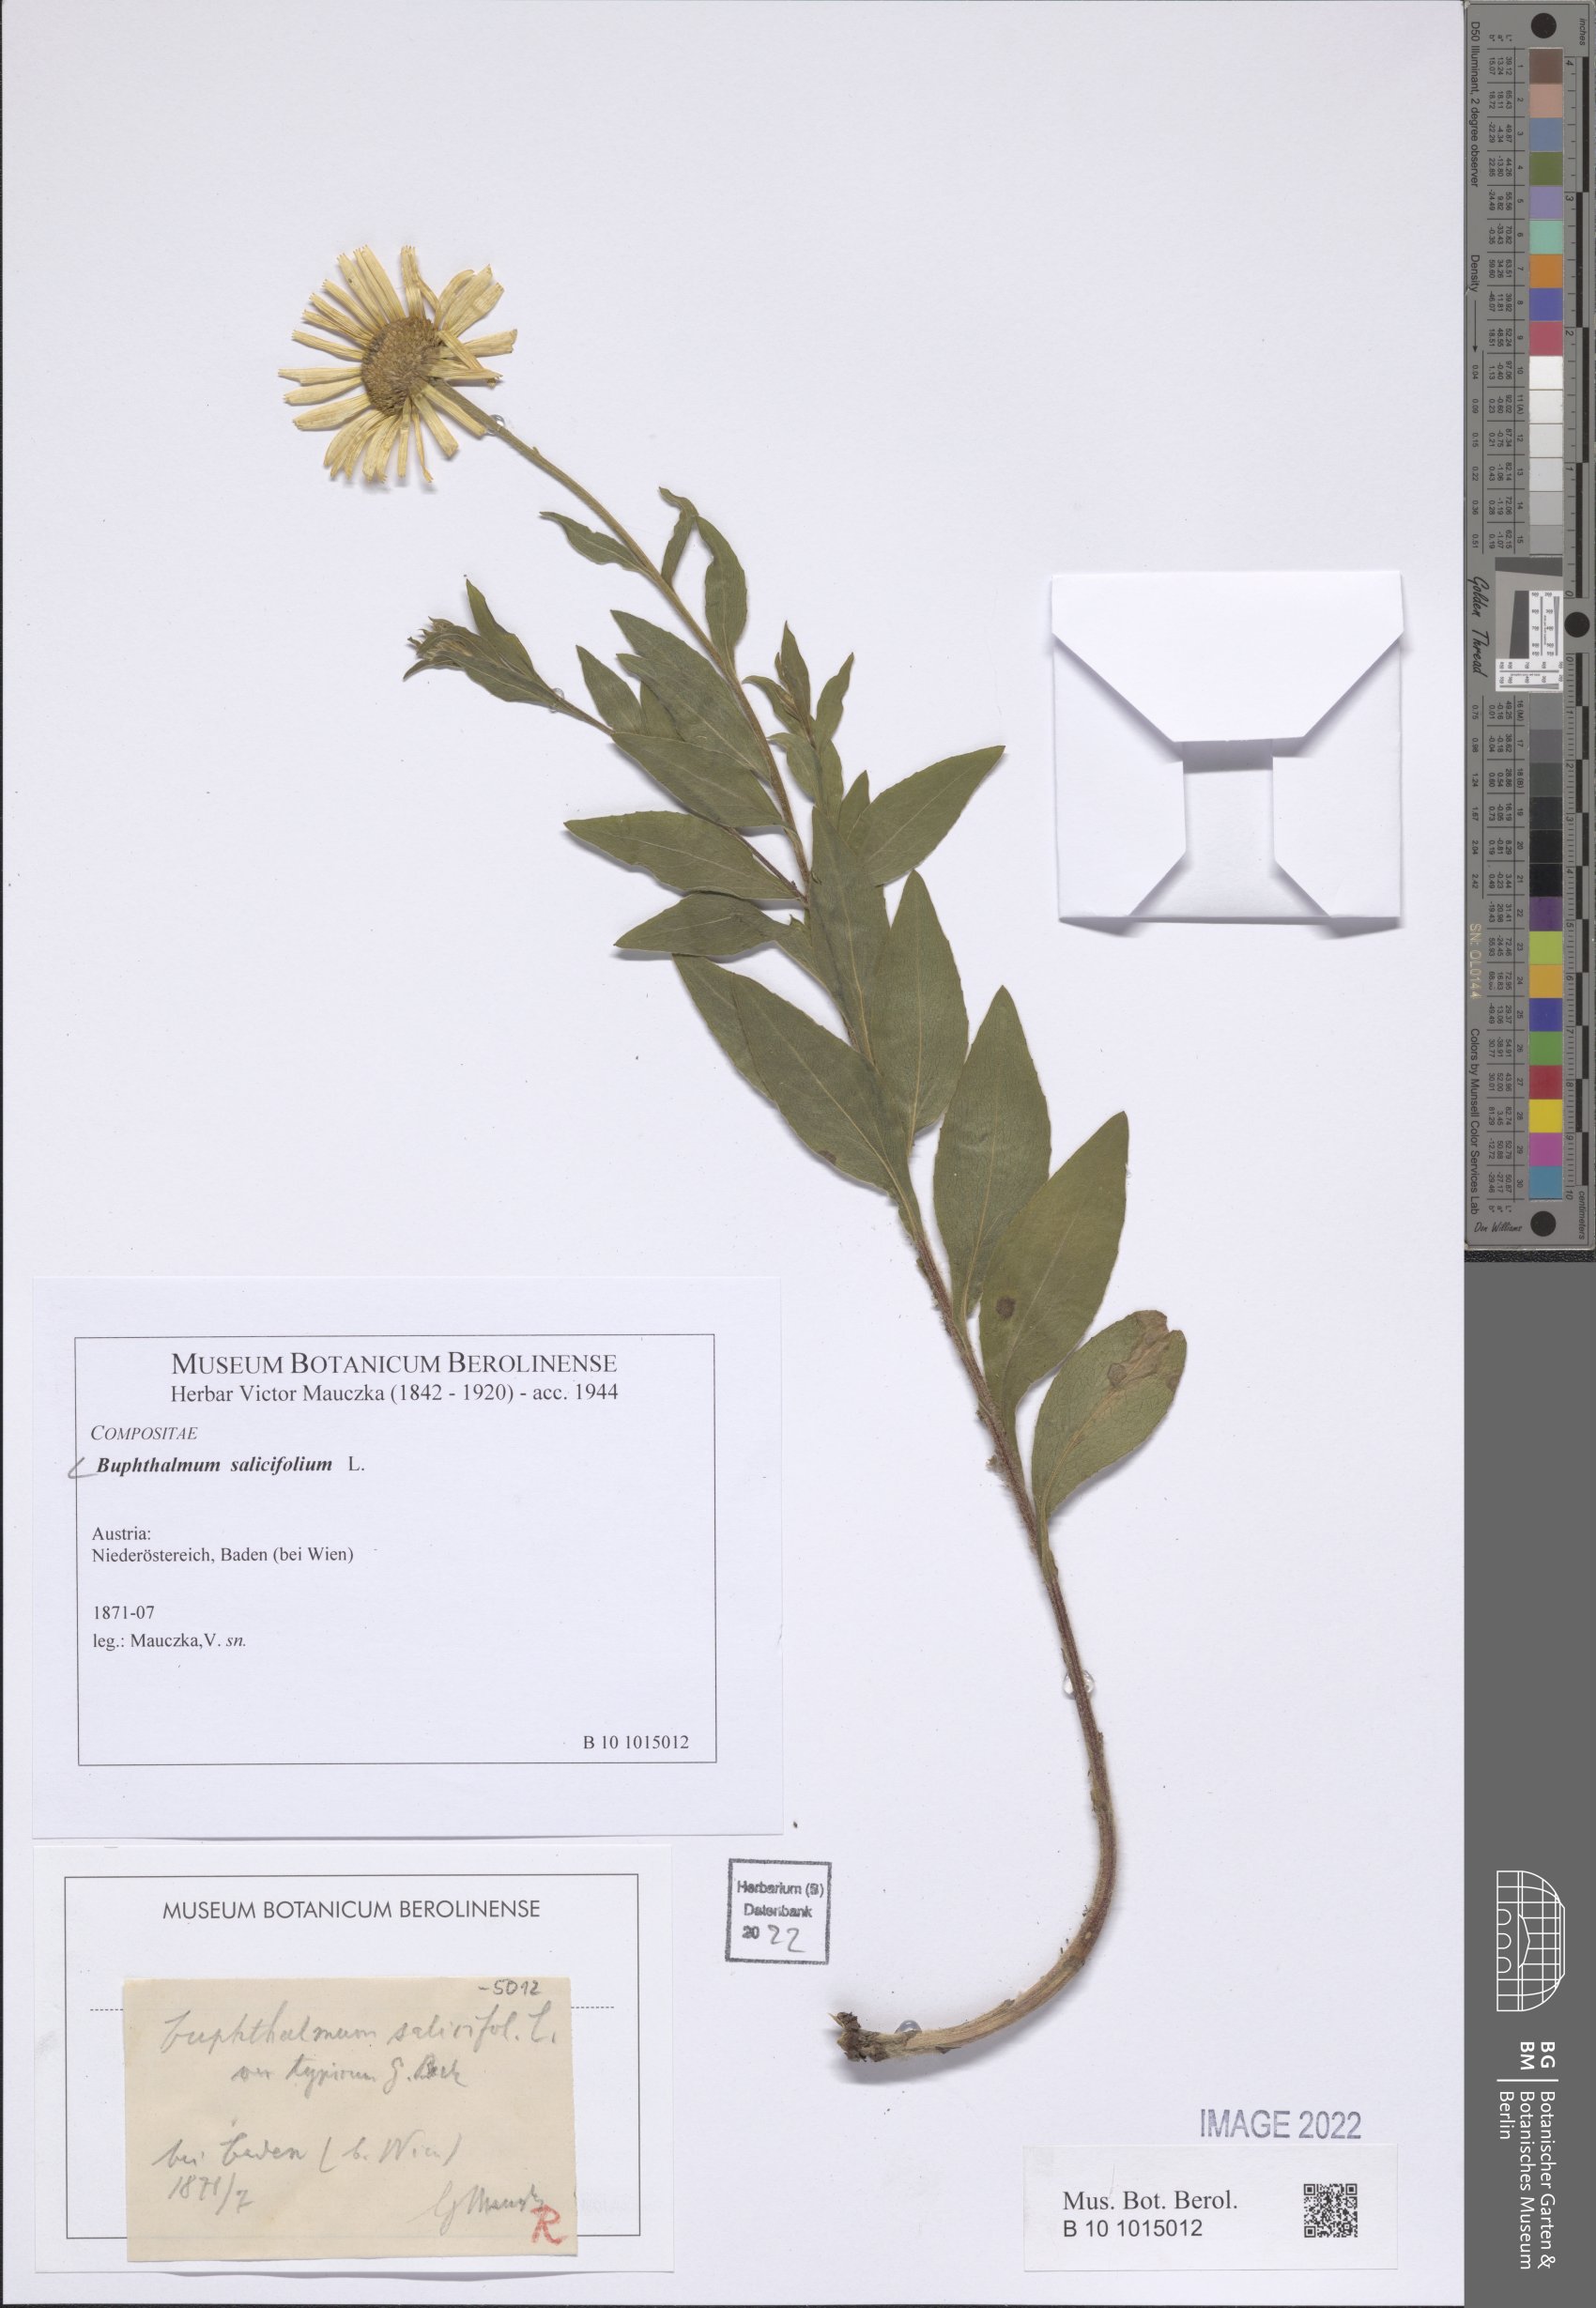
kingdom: Plantae
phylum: Tracheophyta
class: Magnoliopsida
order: Asterales
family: Asteraceae
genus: Buphthalmum
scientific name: Buphthalmum salicifolium
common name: Willow-leaved yellow-oxeye
